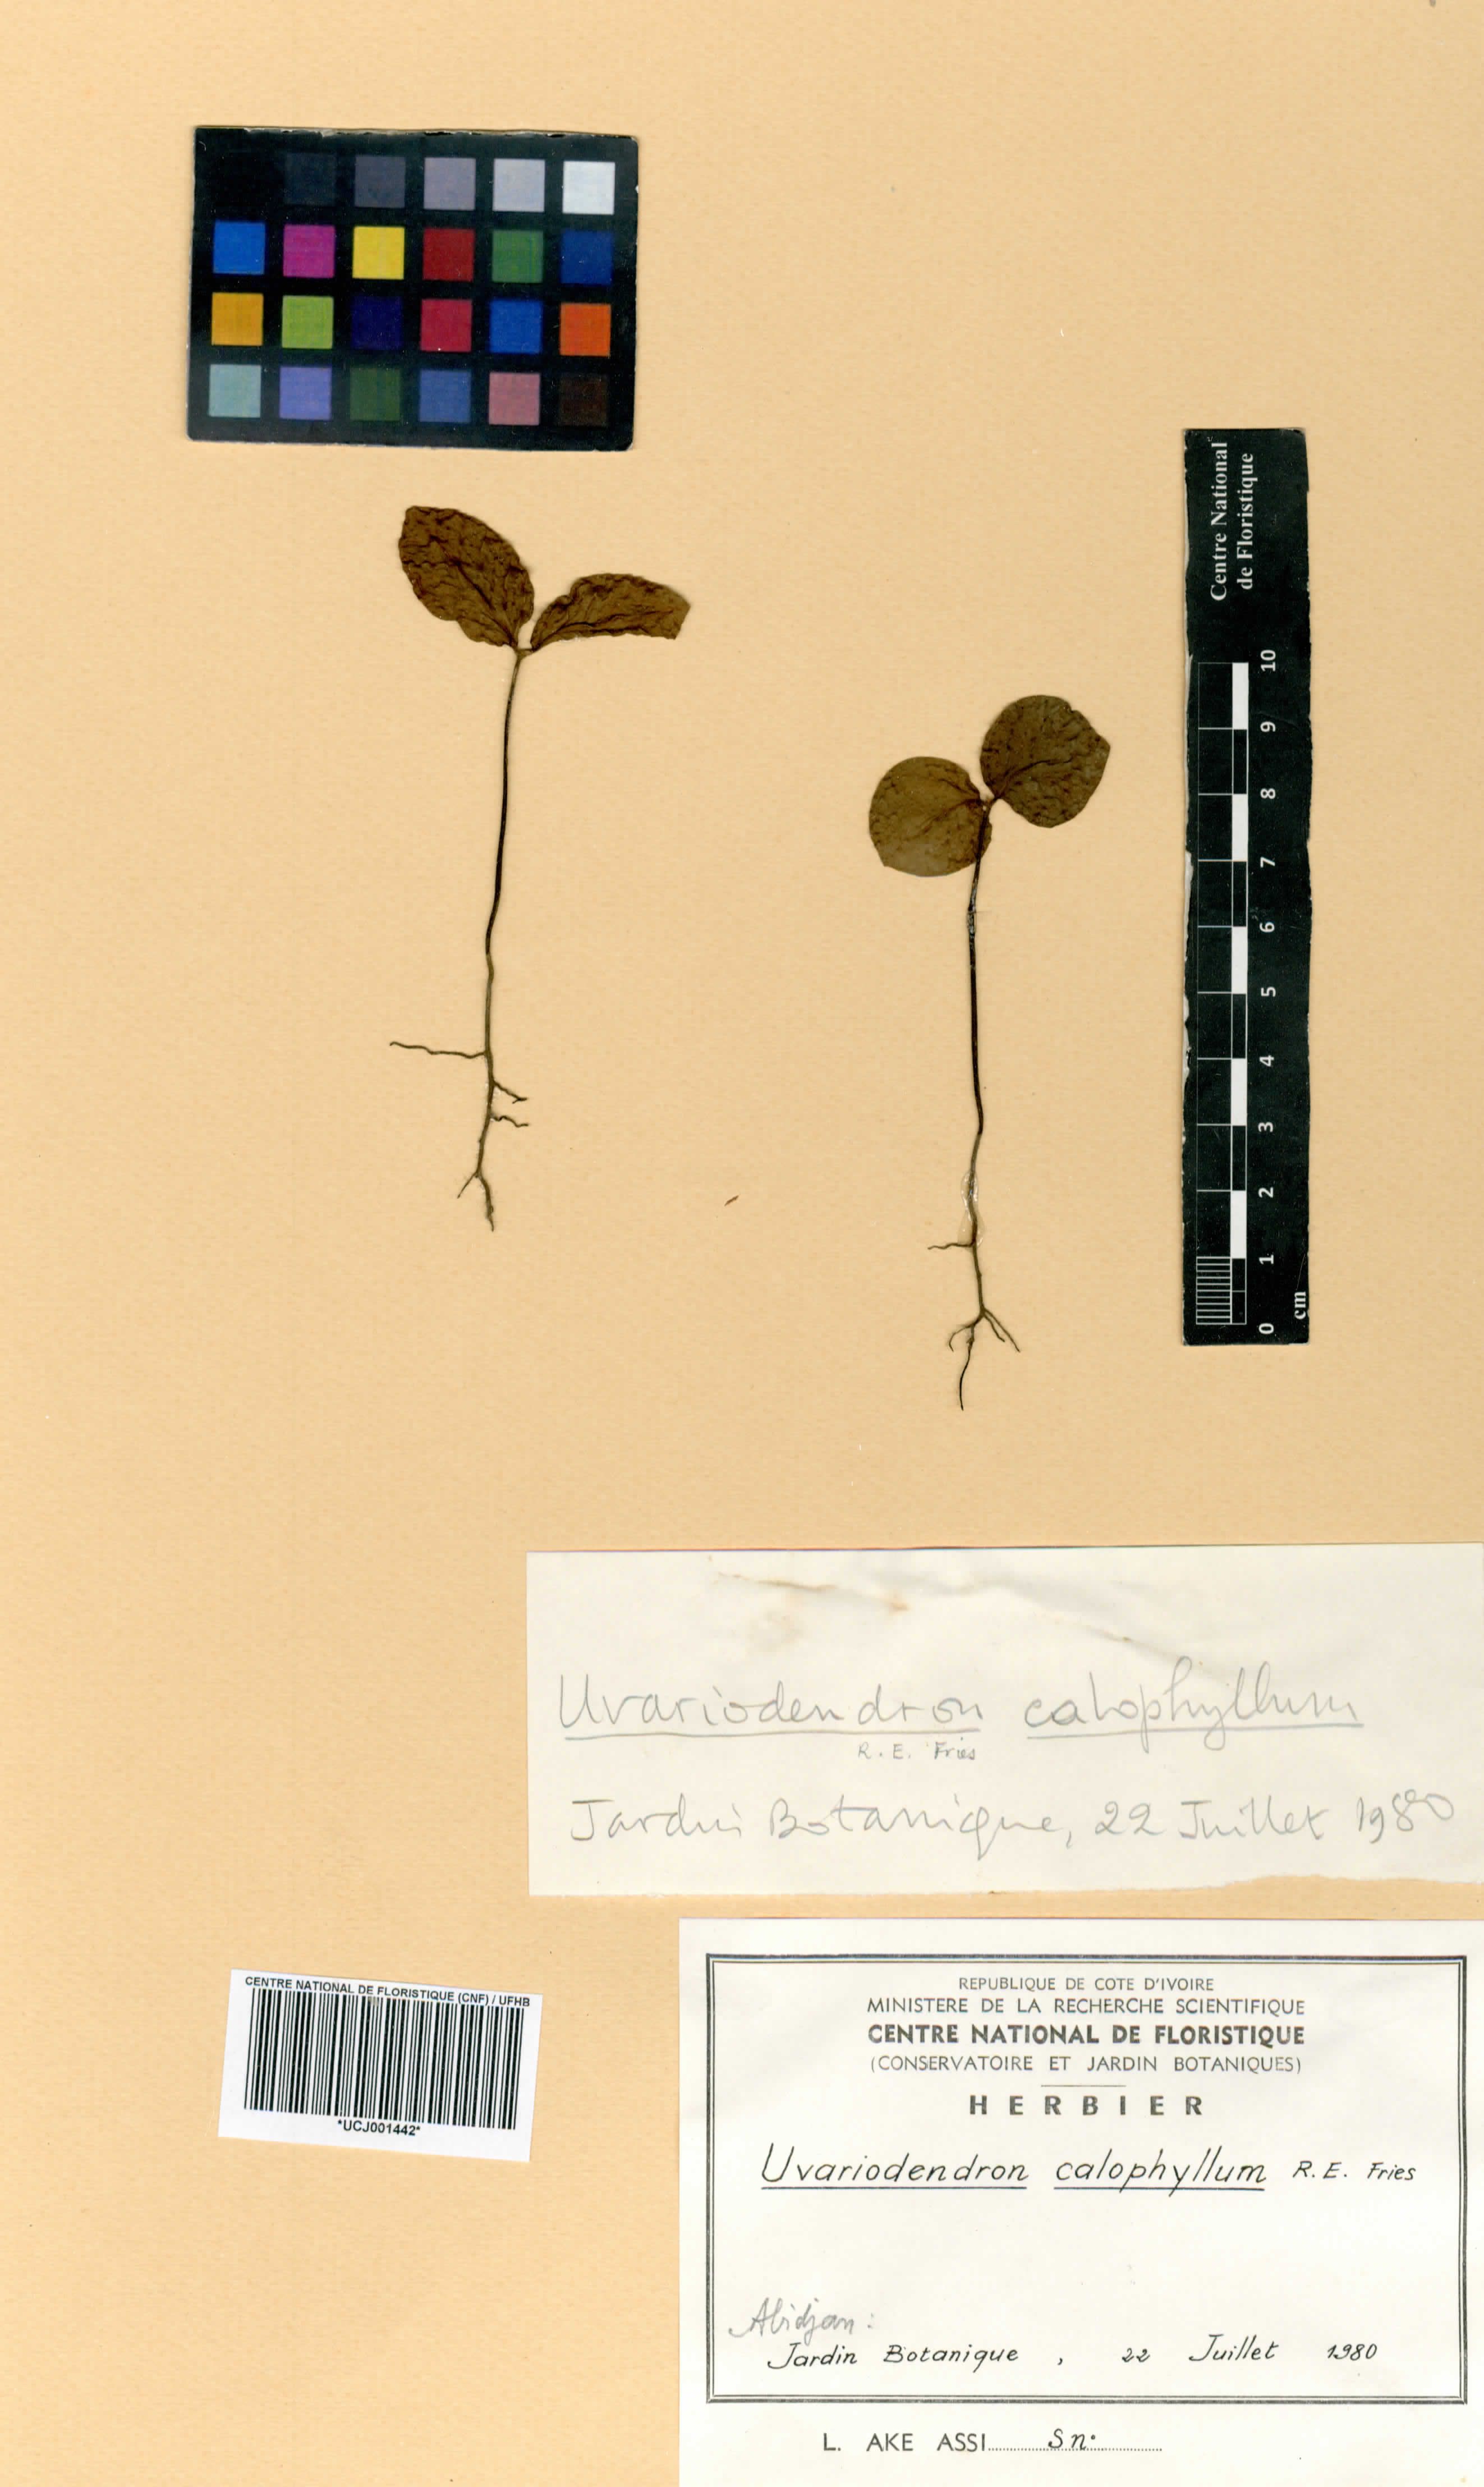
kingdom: Plantae
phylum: Tracheophyta
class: Magnoliopsida
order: Magnoliales
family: Annonaceae
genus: Uvariodendron
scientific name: Uvariodendron calophyllum
